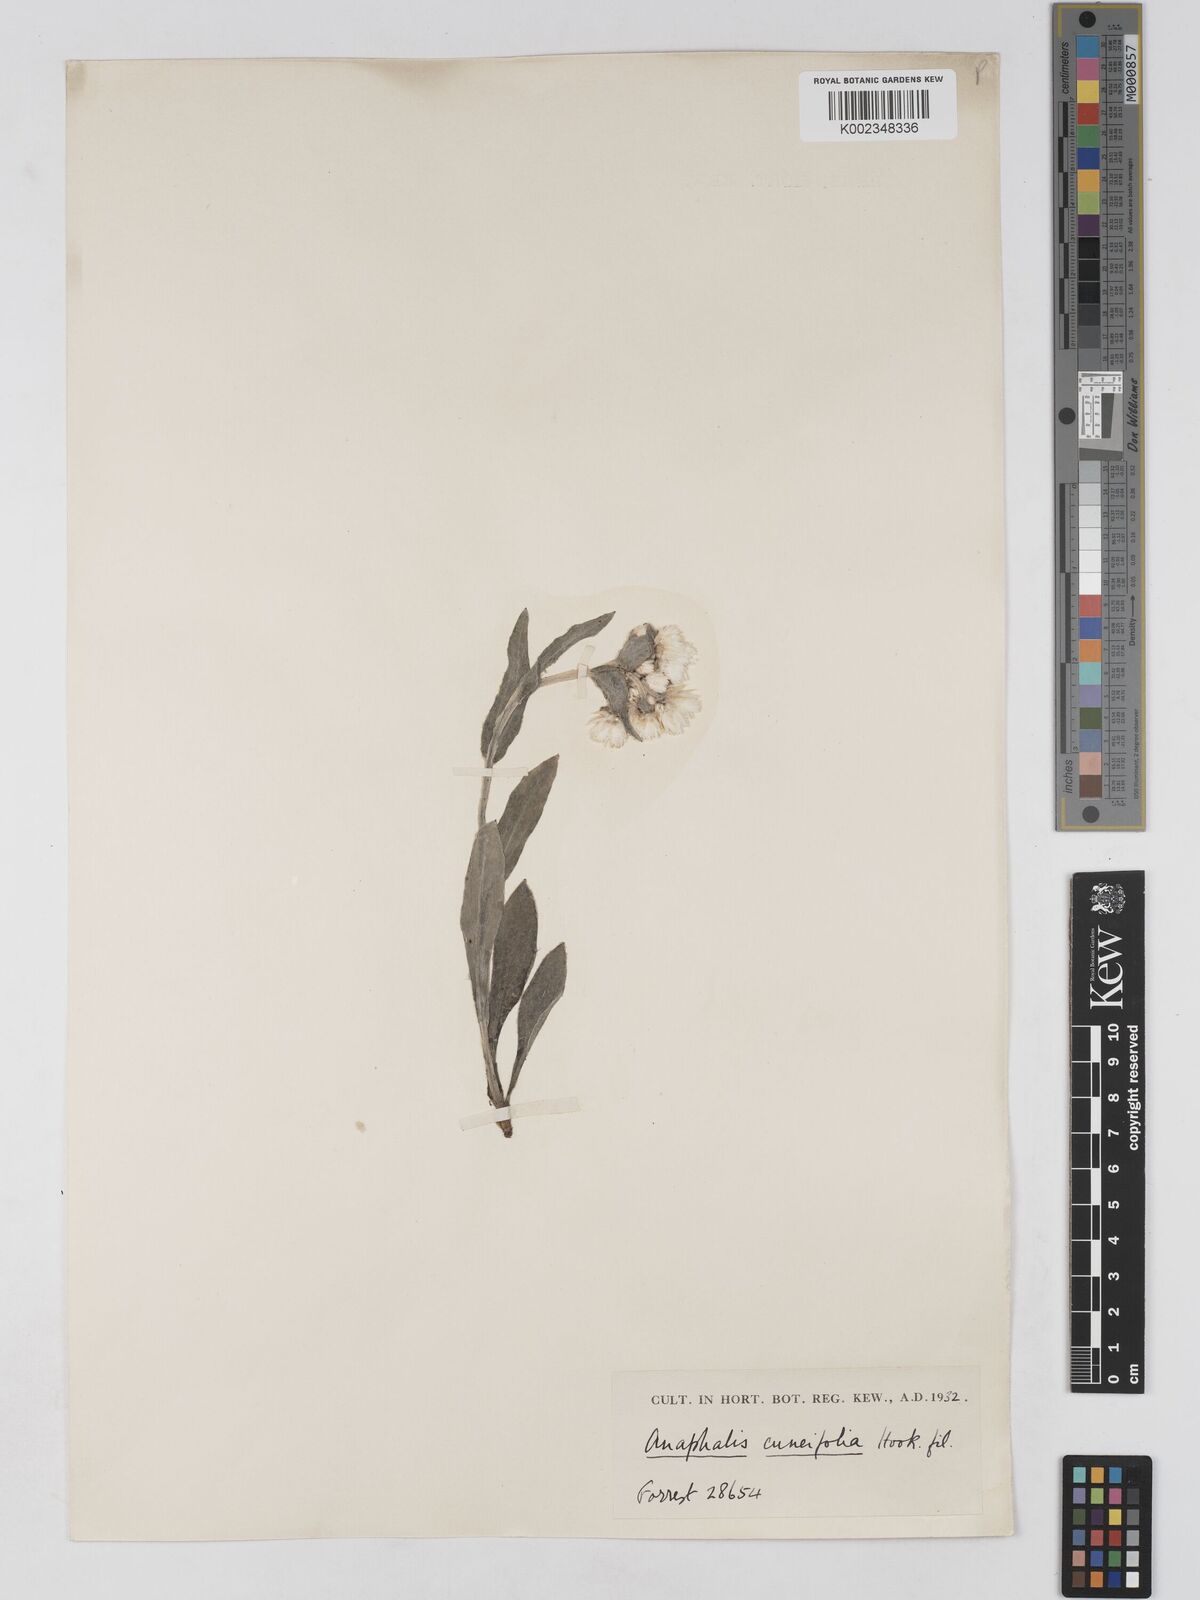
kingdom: Plantae
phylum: Tracheophyta
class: Magnoliopsida
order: Asterales
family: Asteraceae
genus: Anaphalis
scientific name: Anaphalis nepalensis
